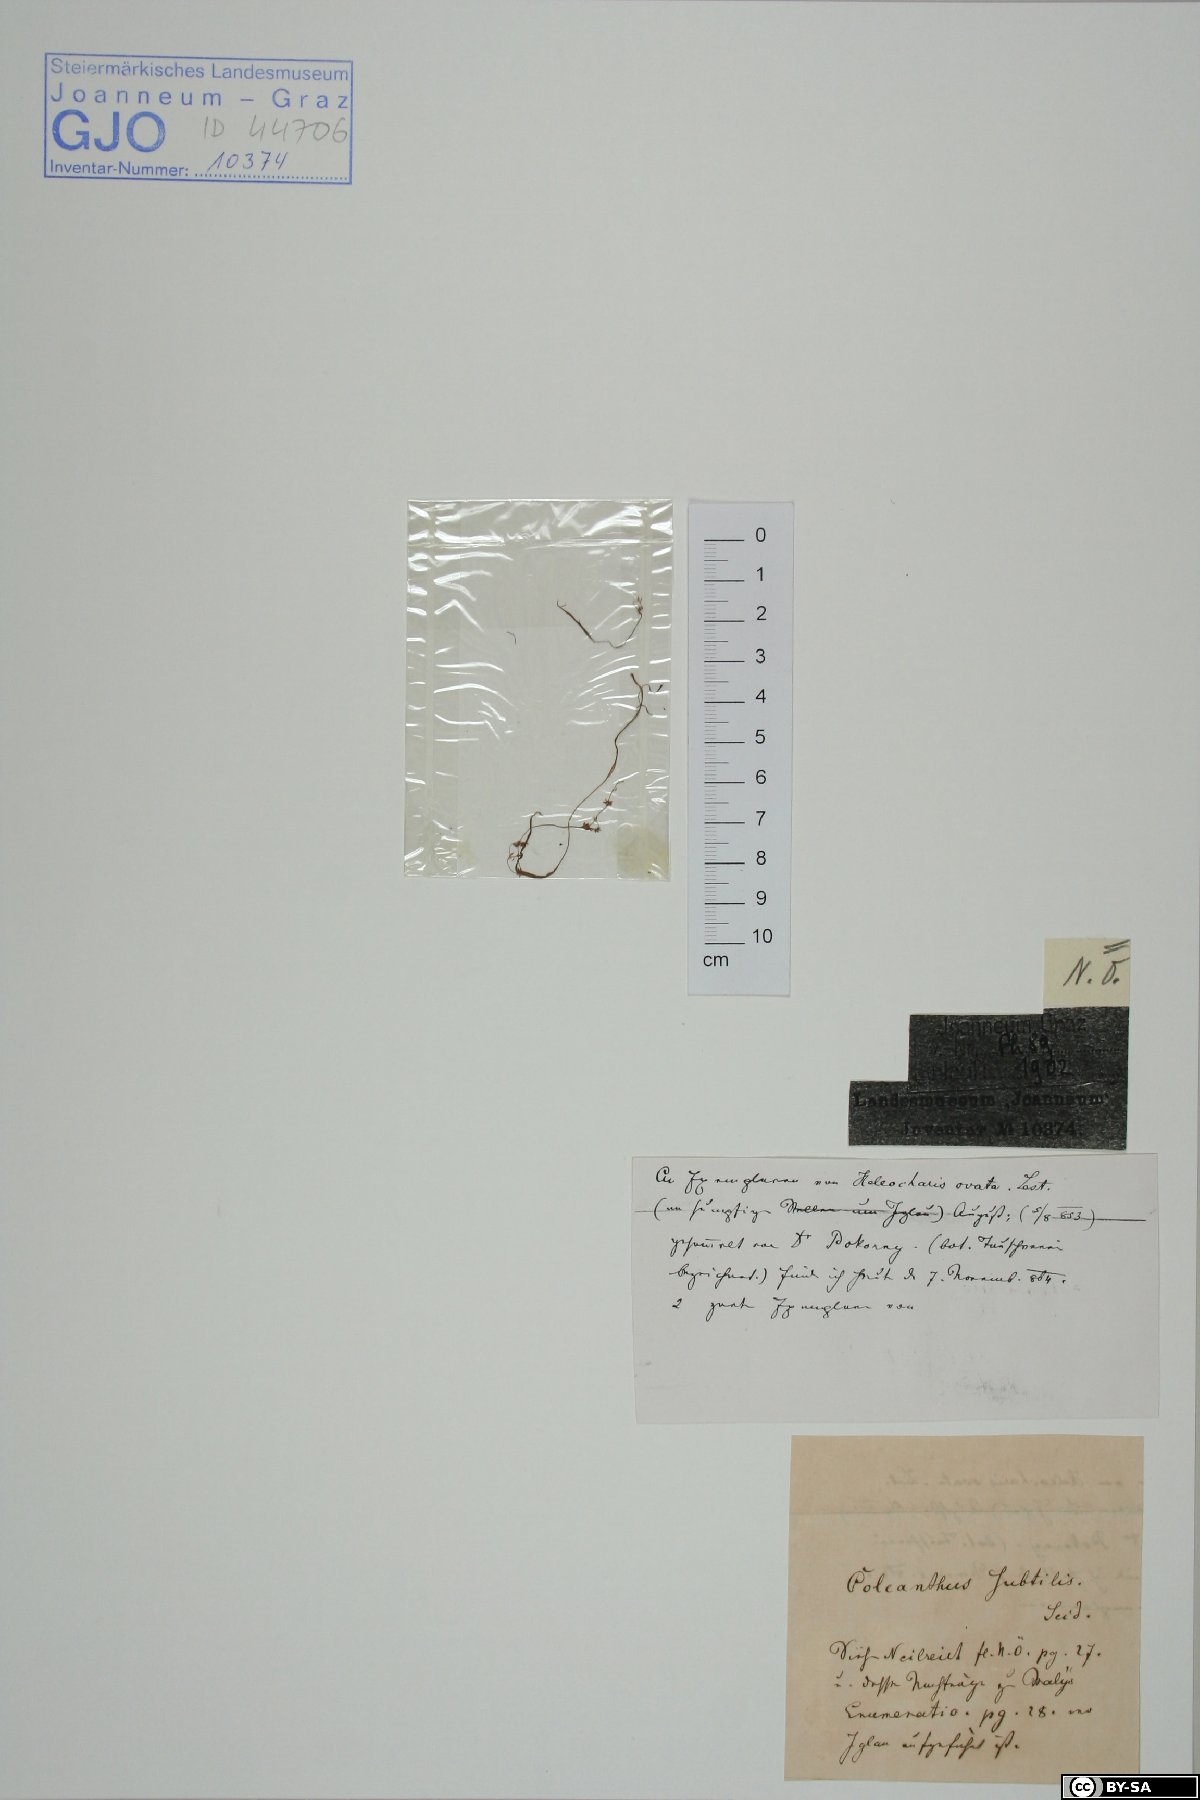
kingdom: Plantae
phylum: Tracheophyta
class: Liliopsida
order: Poales
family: Poaceae
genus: Coleanthus
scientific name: Coleanthus subtilis
